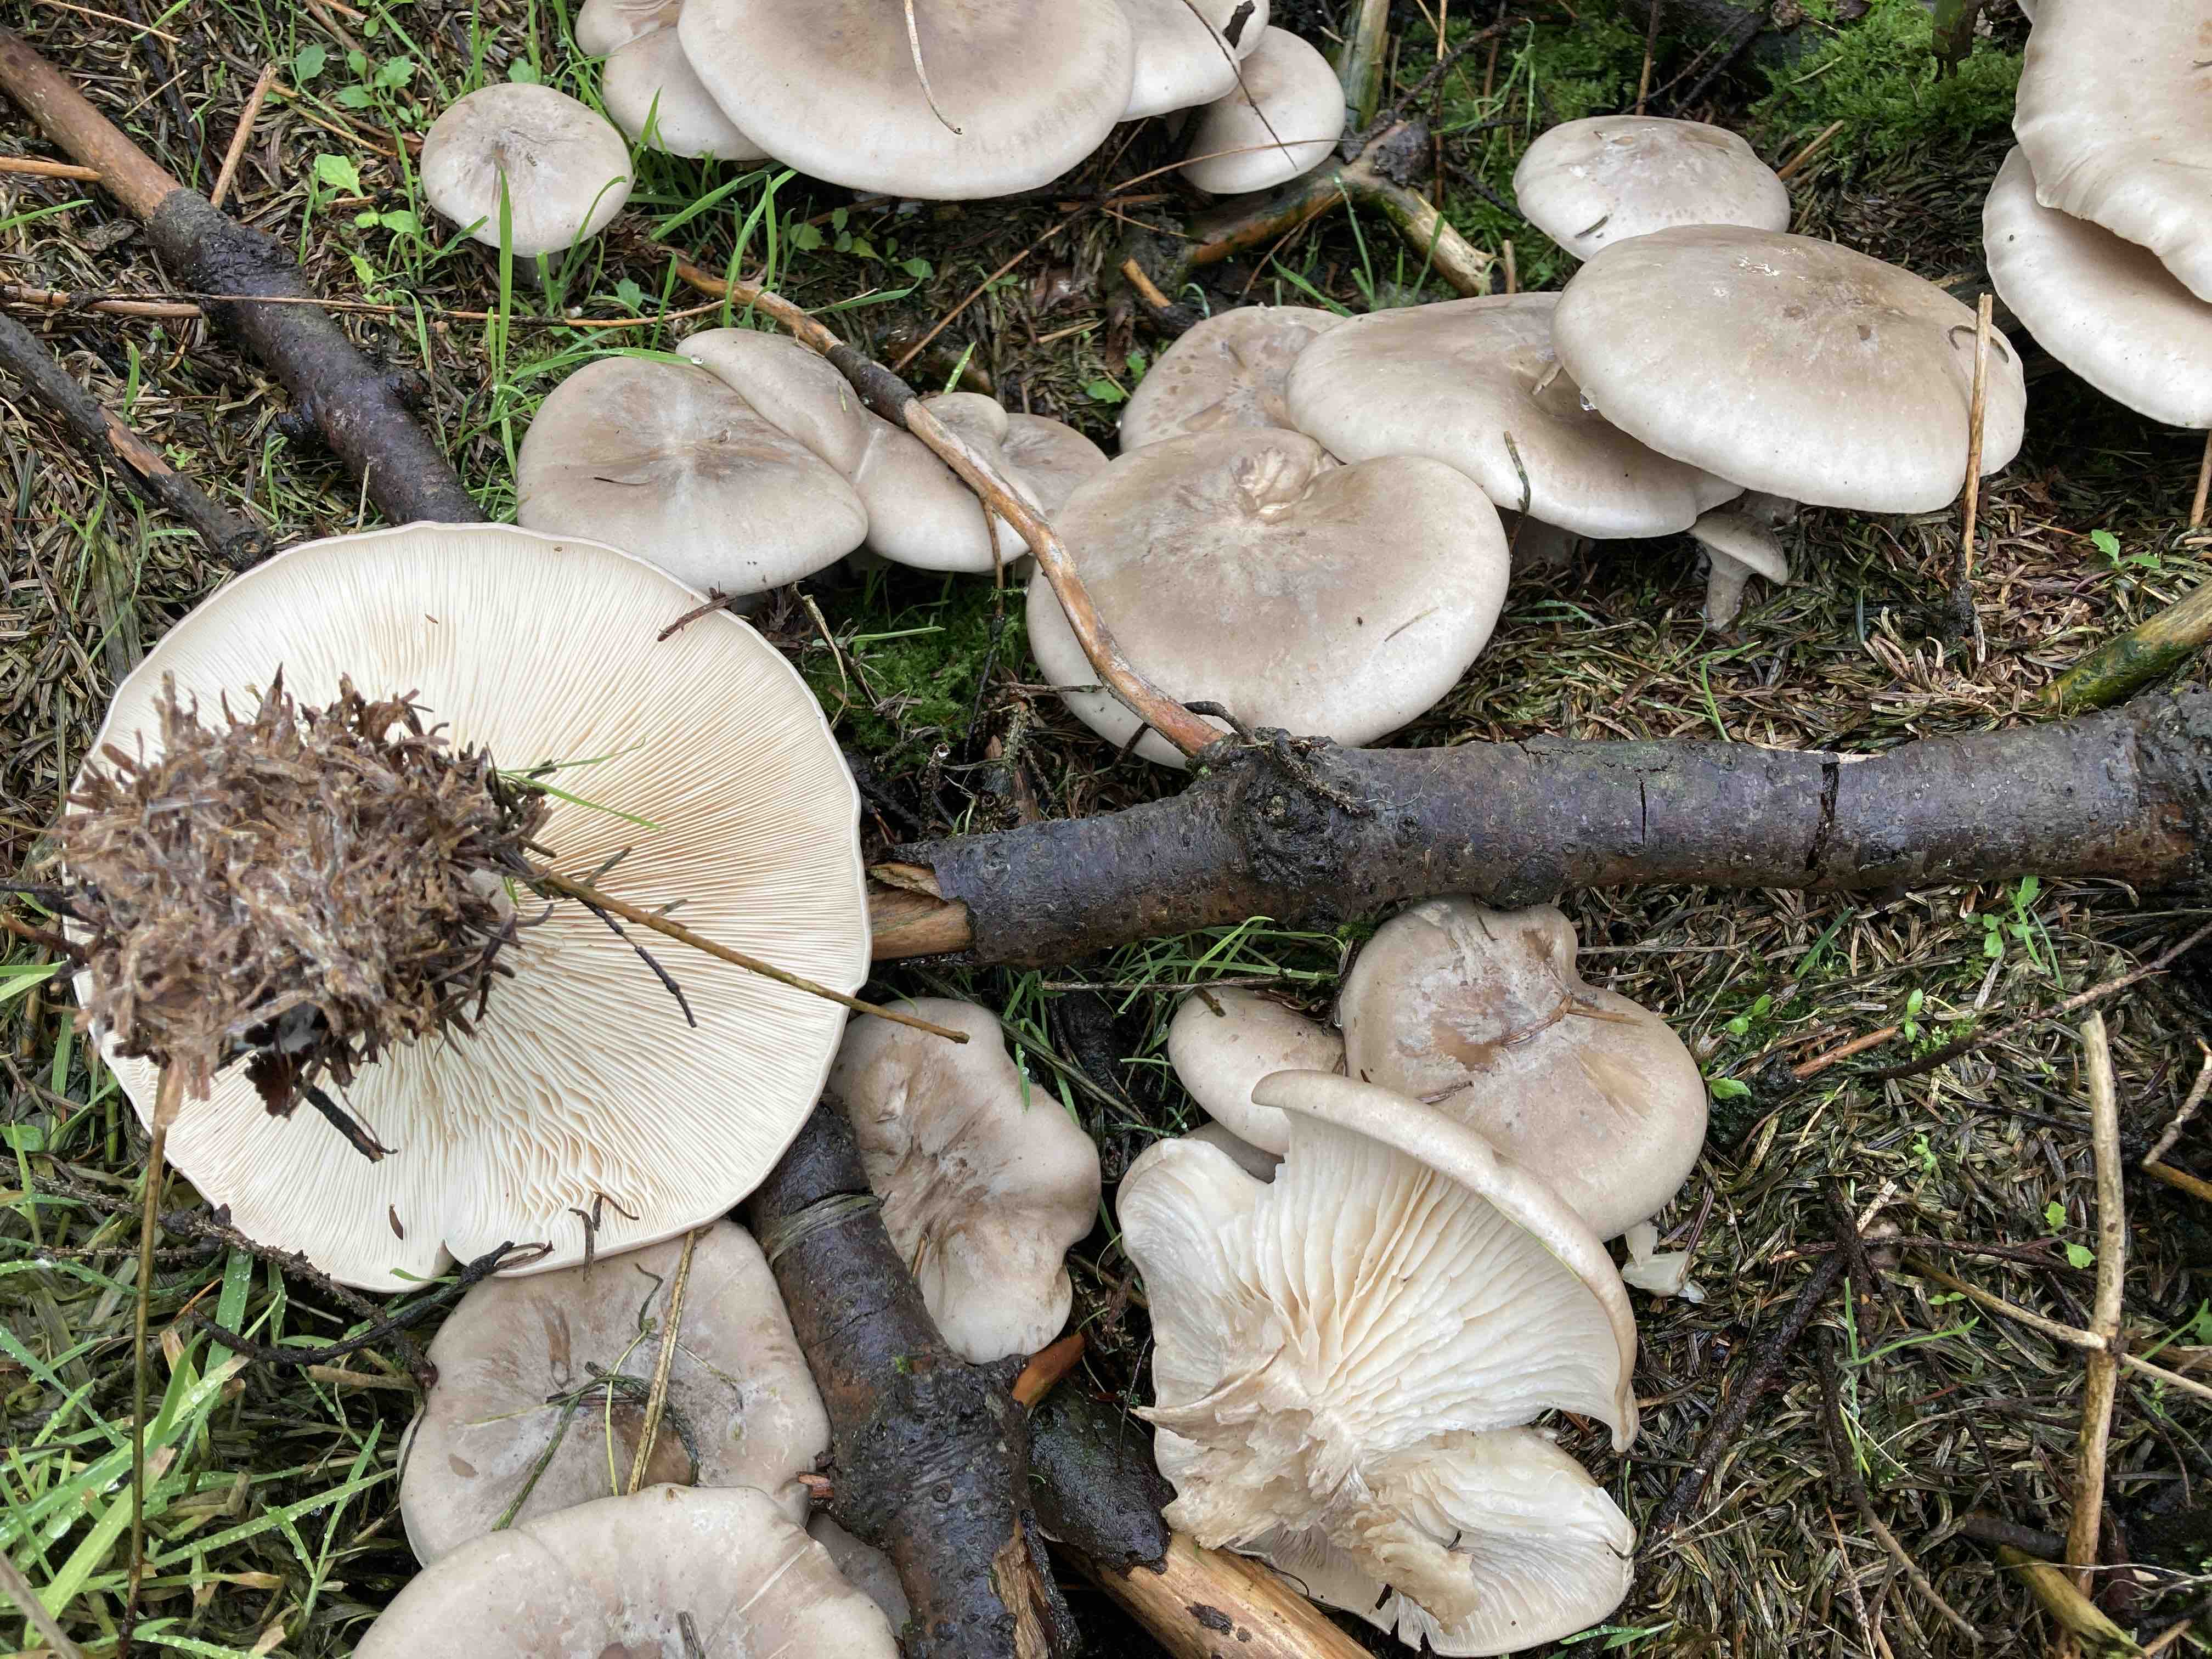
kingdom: Fungi
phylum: Basidiomycota
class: Agaricomycetes
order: Agaricales
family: Tricholomataceae
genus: Clitocybe
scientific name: Clitocybe nebularis
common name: tåge-tragthat
